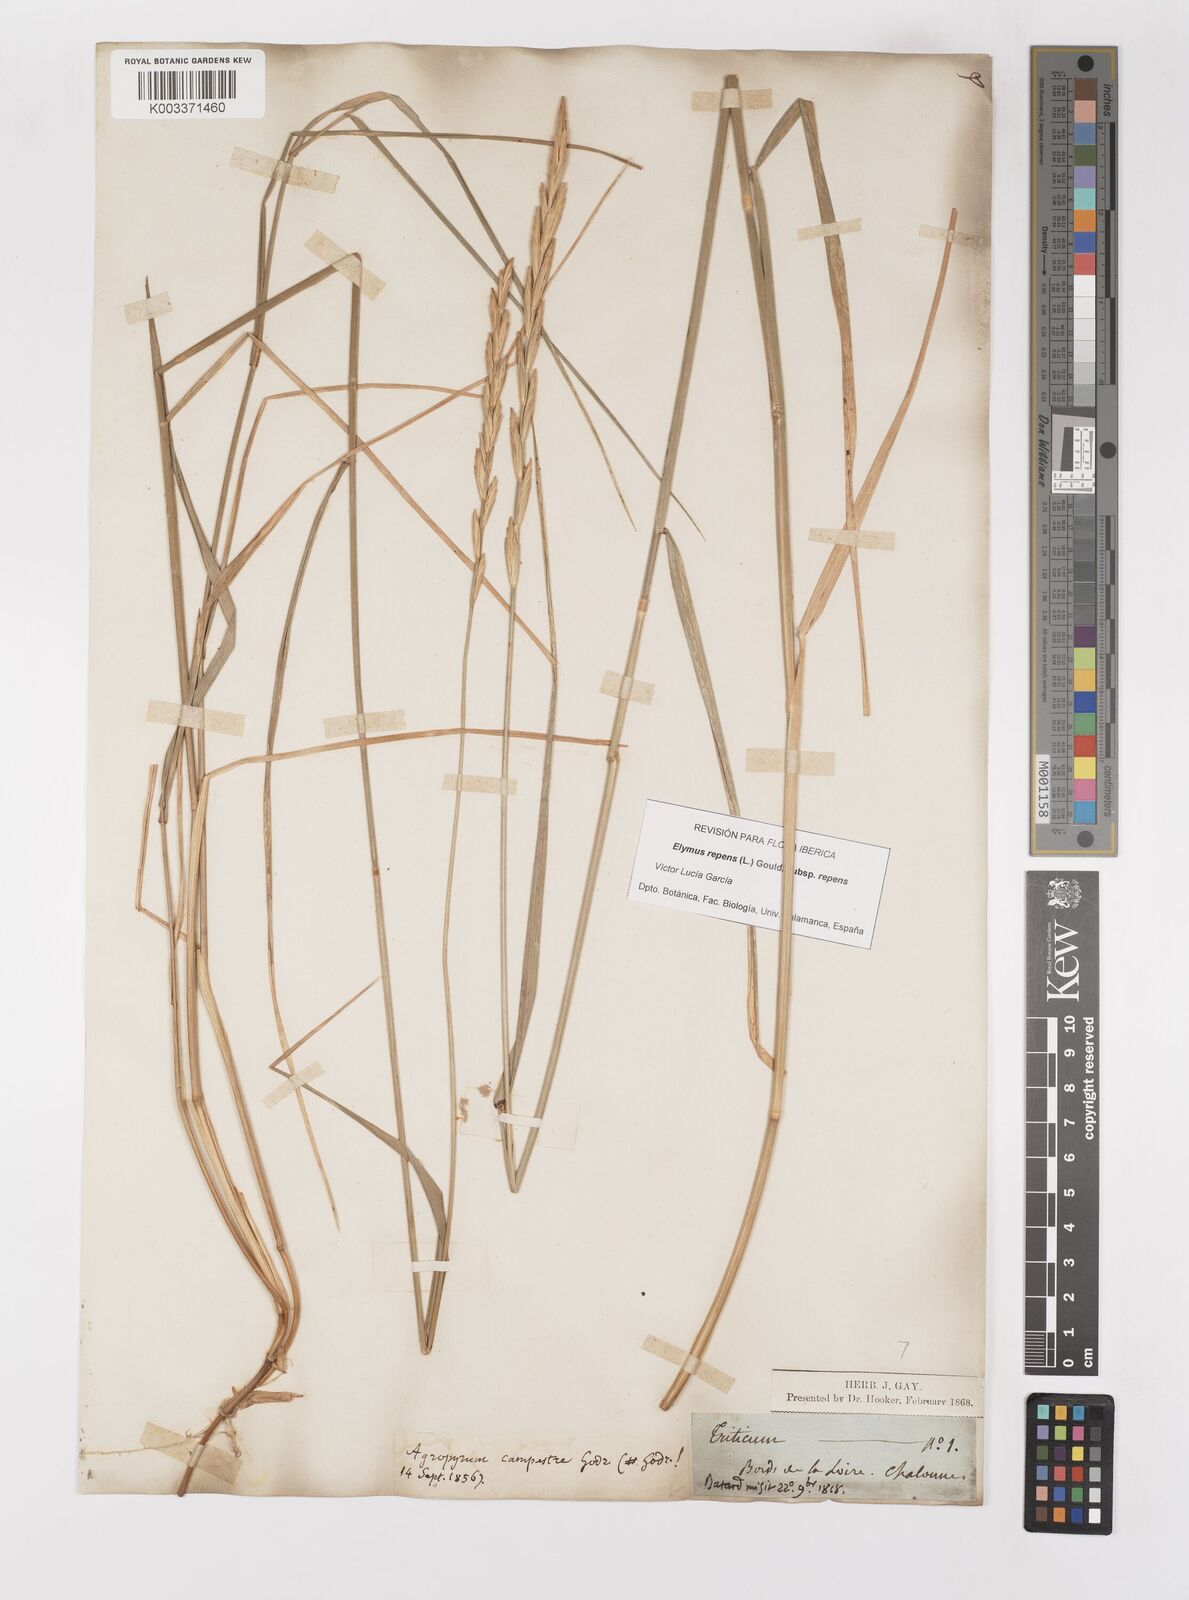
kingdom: Plantae
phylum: Tracheophyta
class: Liliopsida
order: Poales
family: Poaceae
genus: Elymus
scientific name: Elymus repens
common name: Quackgrass
